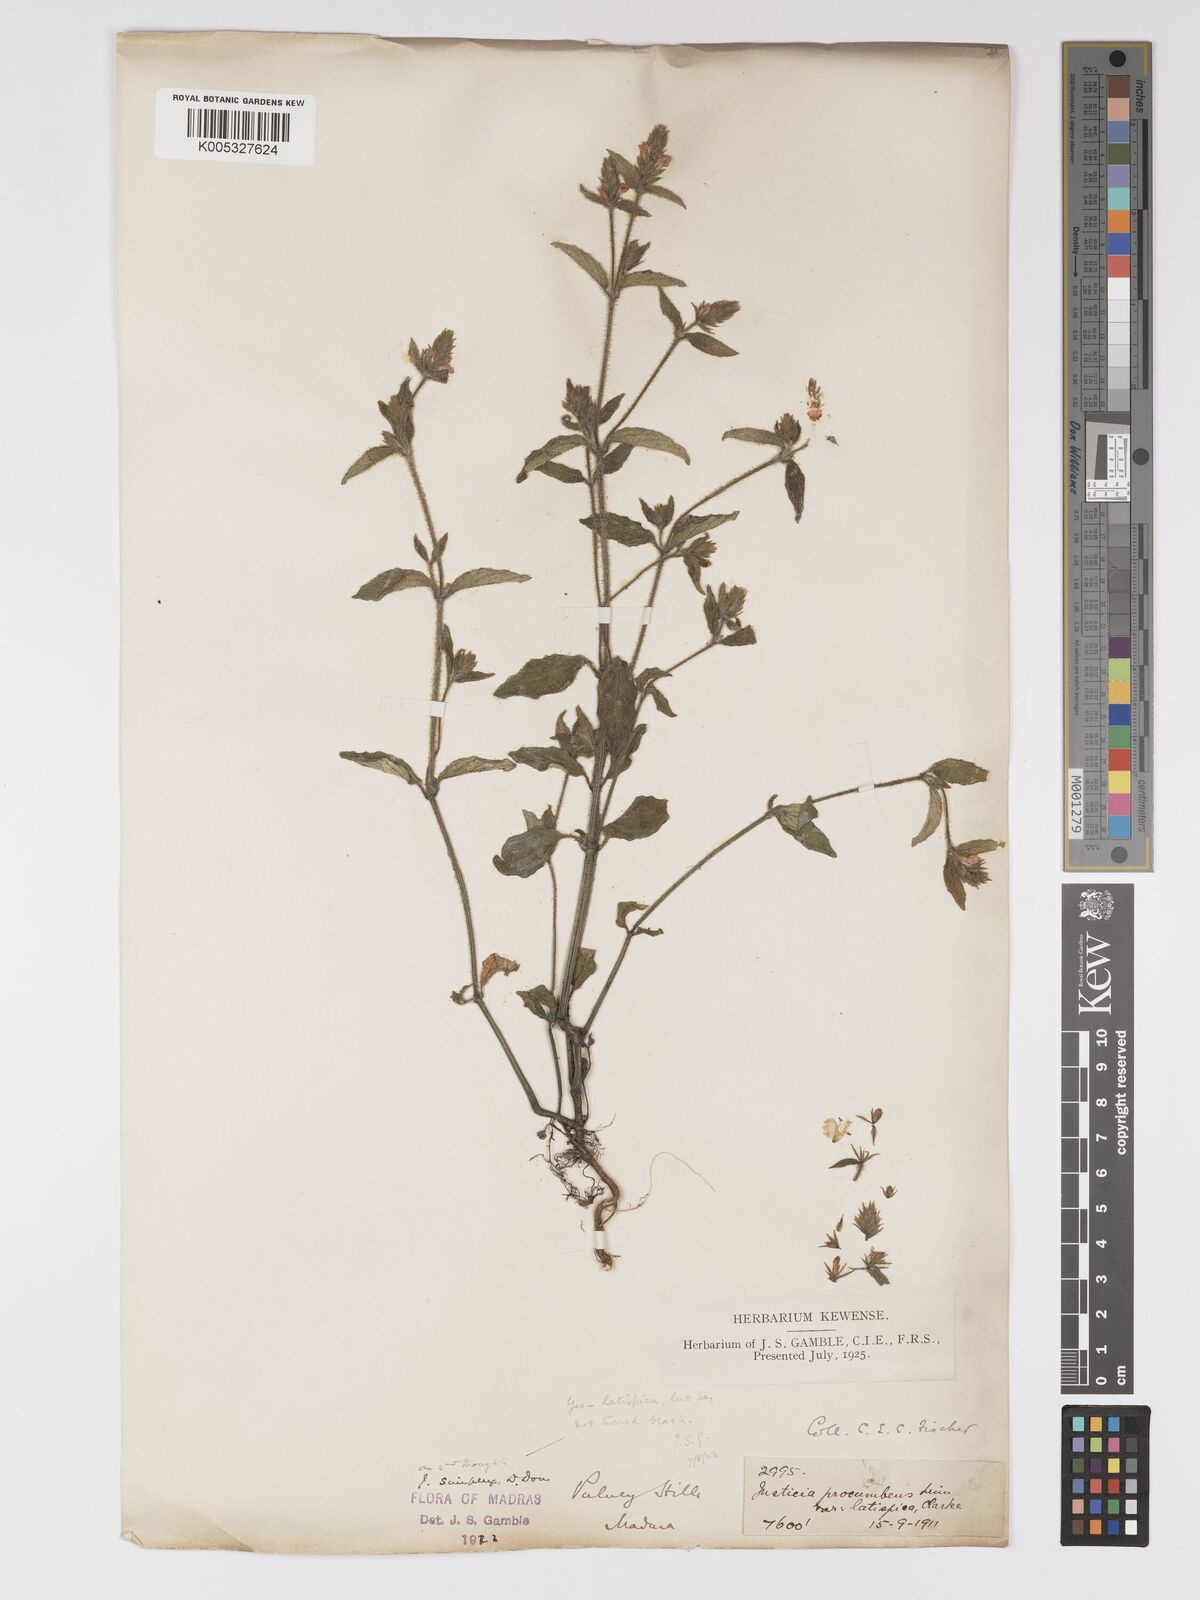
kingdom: Plantae
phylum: Tracheophyta
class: Magnoliopsida
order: Lamiales
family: Acanthaceae
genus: Rostellularia
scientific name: Rostellularia latispica
